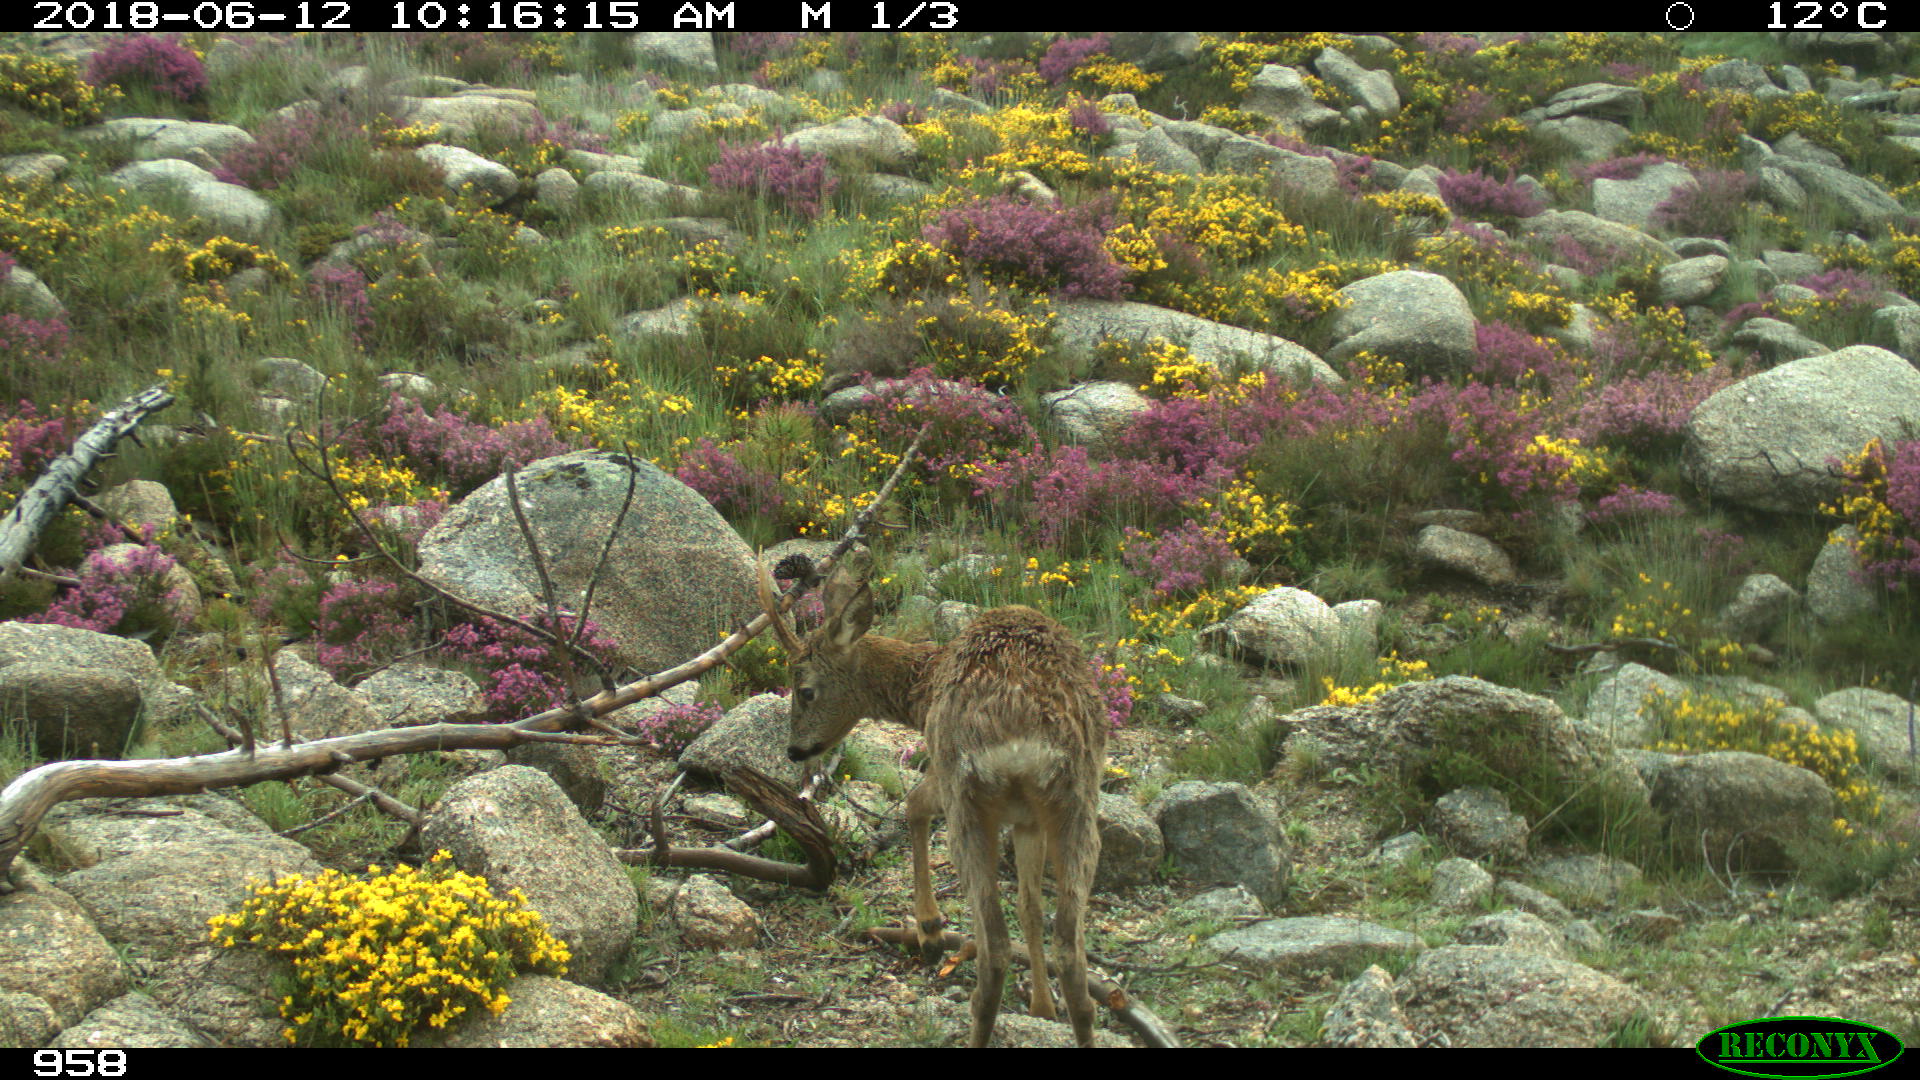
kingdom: Animalia
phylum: Chordata
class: Mammalia
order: Artiodactyla
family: Cervidae
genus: Capreolus
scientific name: Capreolus capreolus
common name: Western roe deer
